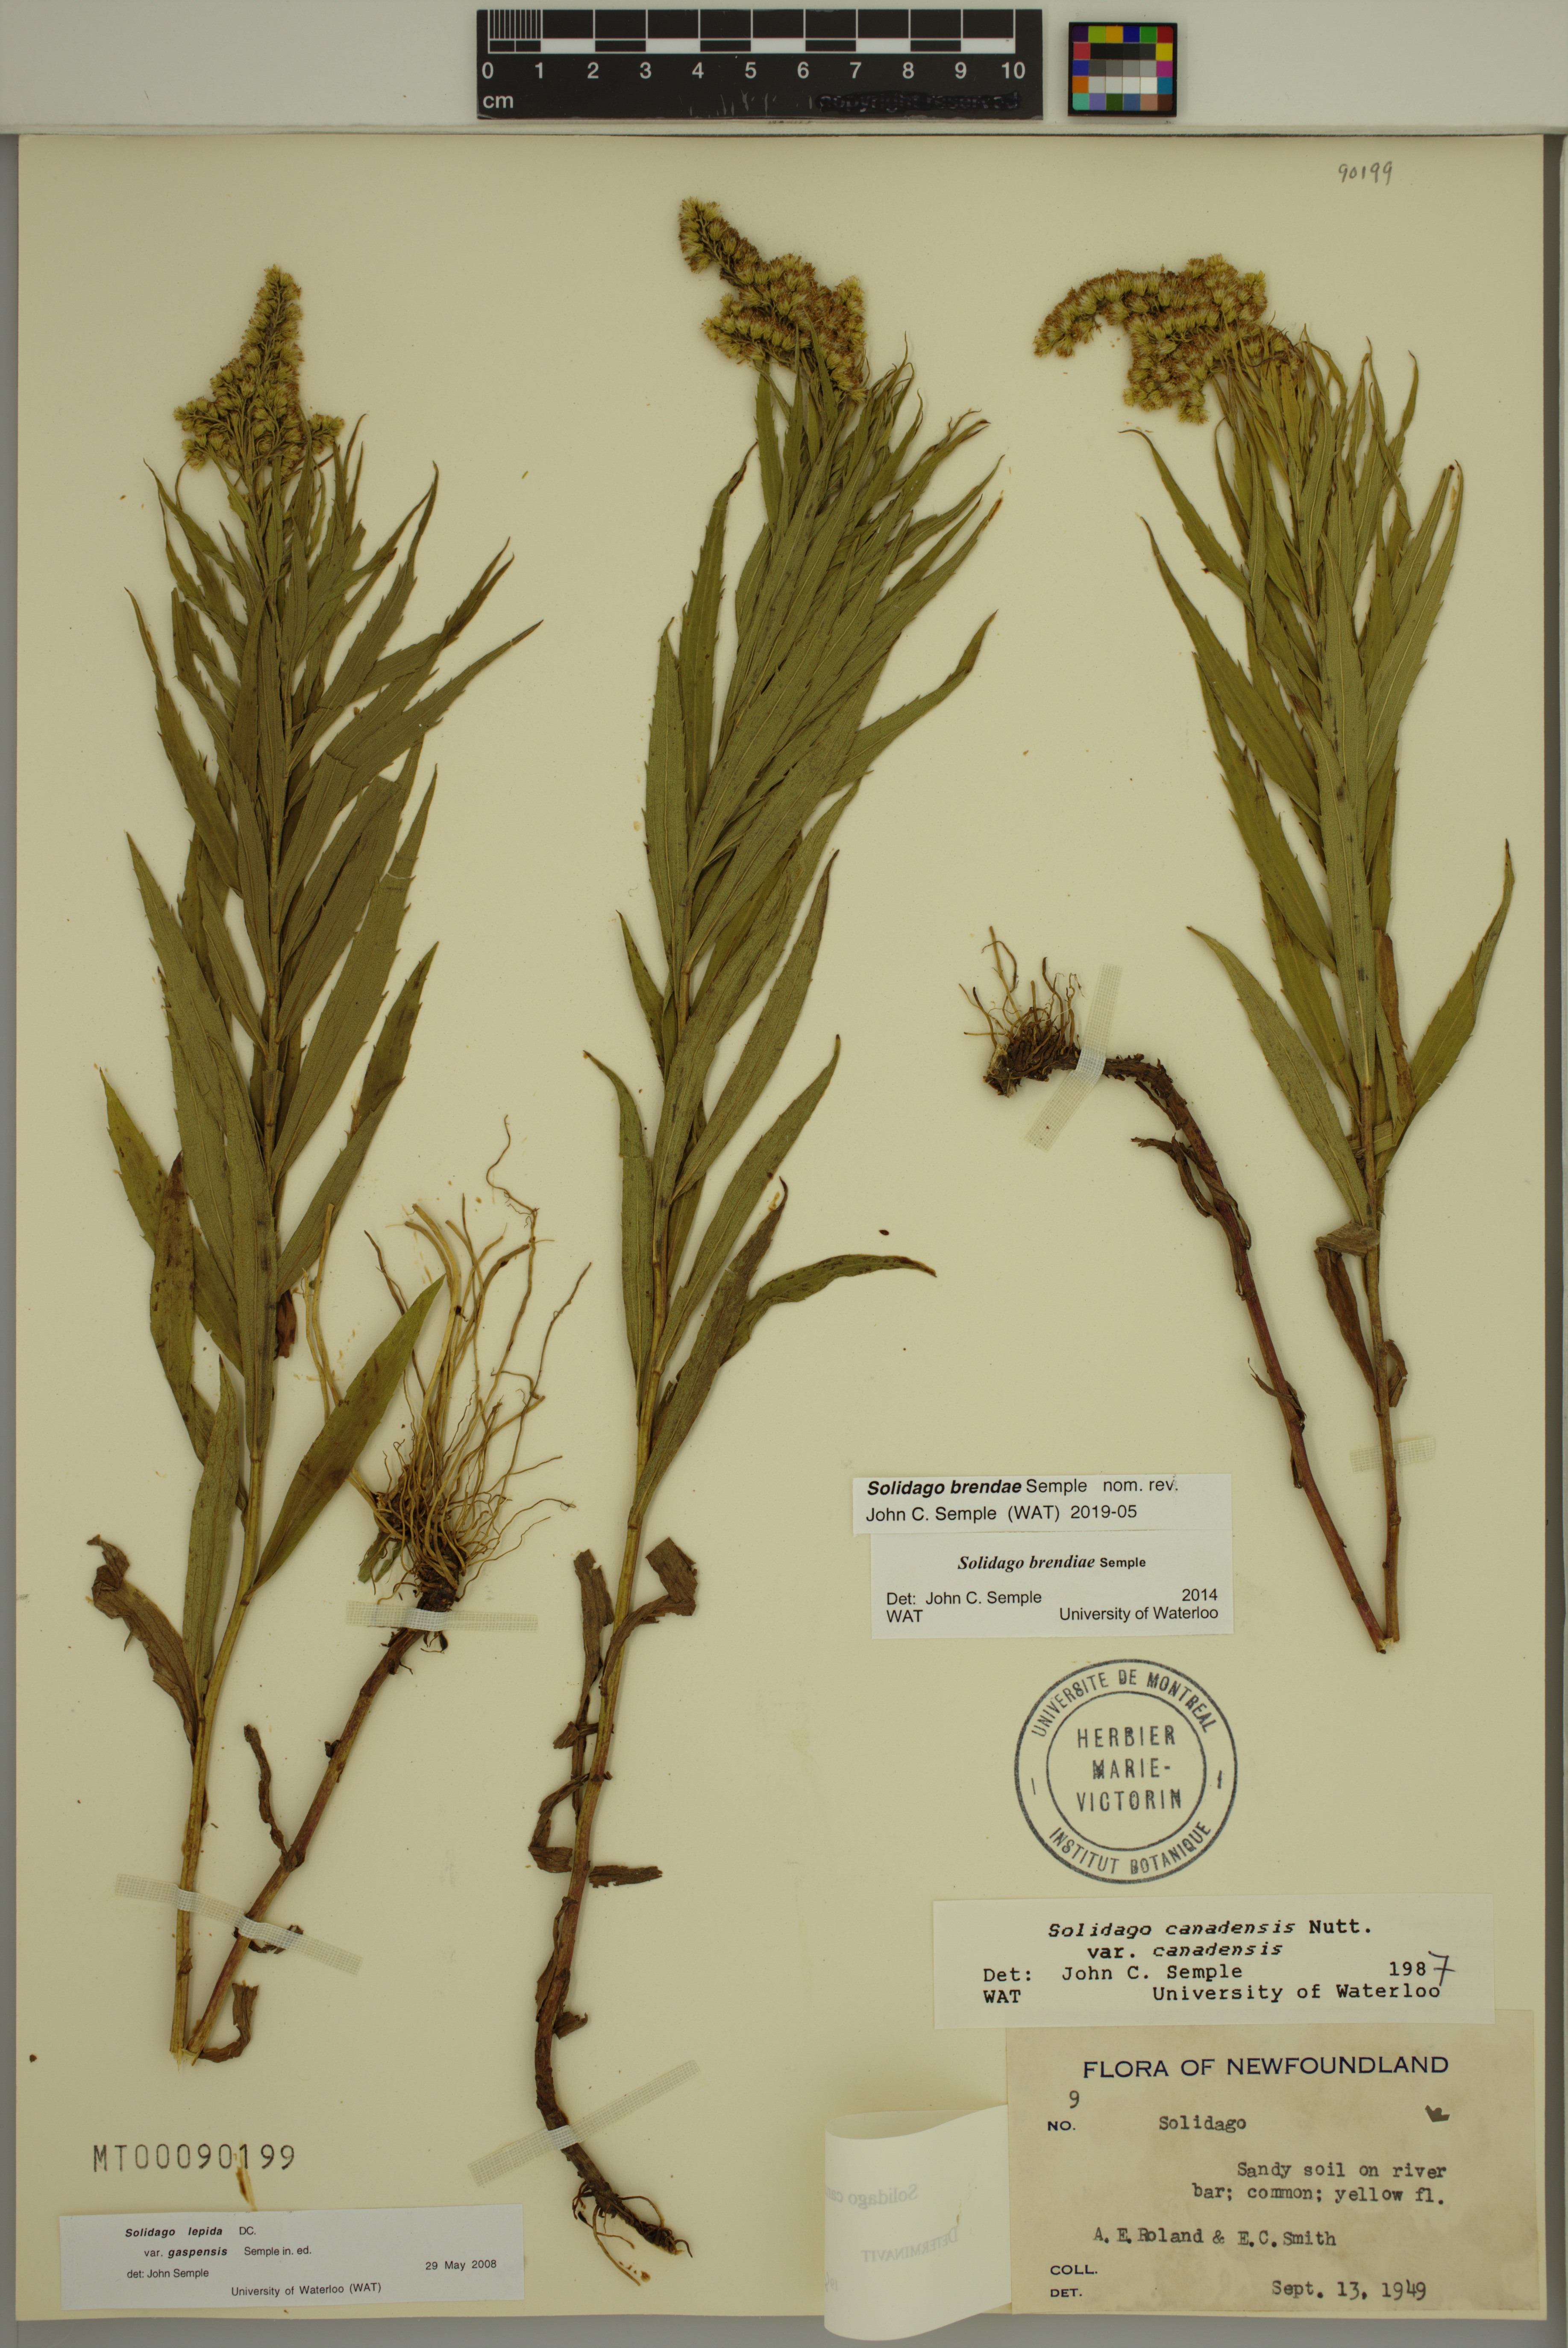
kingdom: Plantae
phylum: Tracheophyta
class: Magnoliopsida
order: Asterales
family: Asteraceae
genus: Solidago
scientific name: Solidago brendae
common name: Brenda's goldenrod
